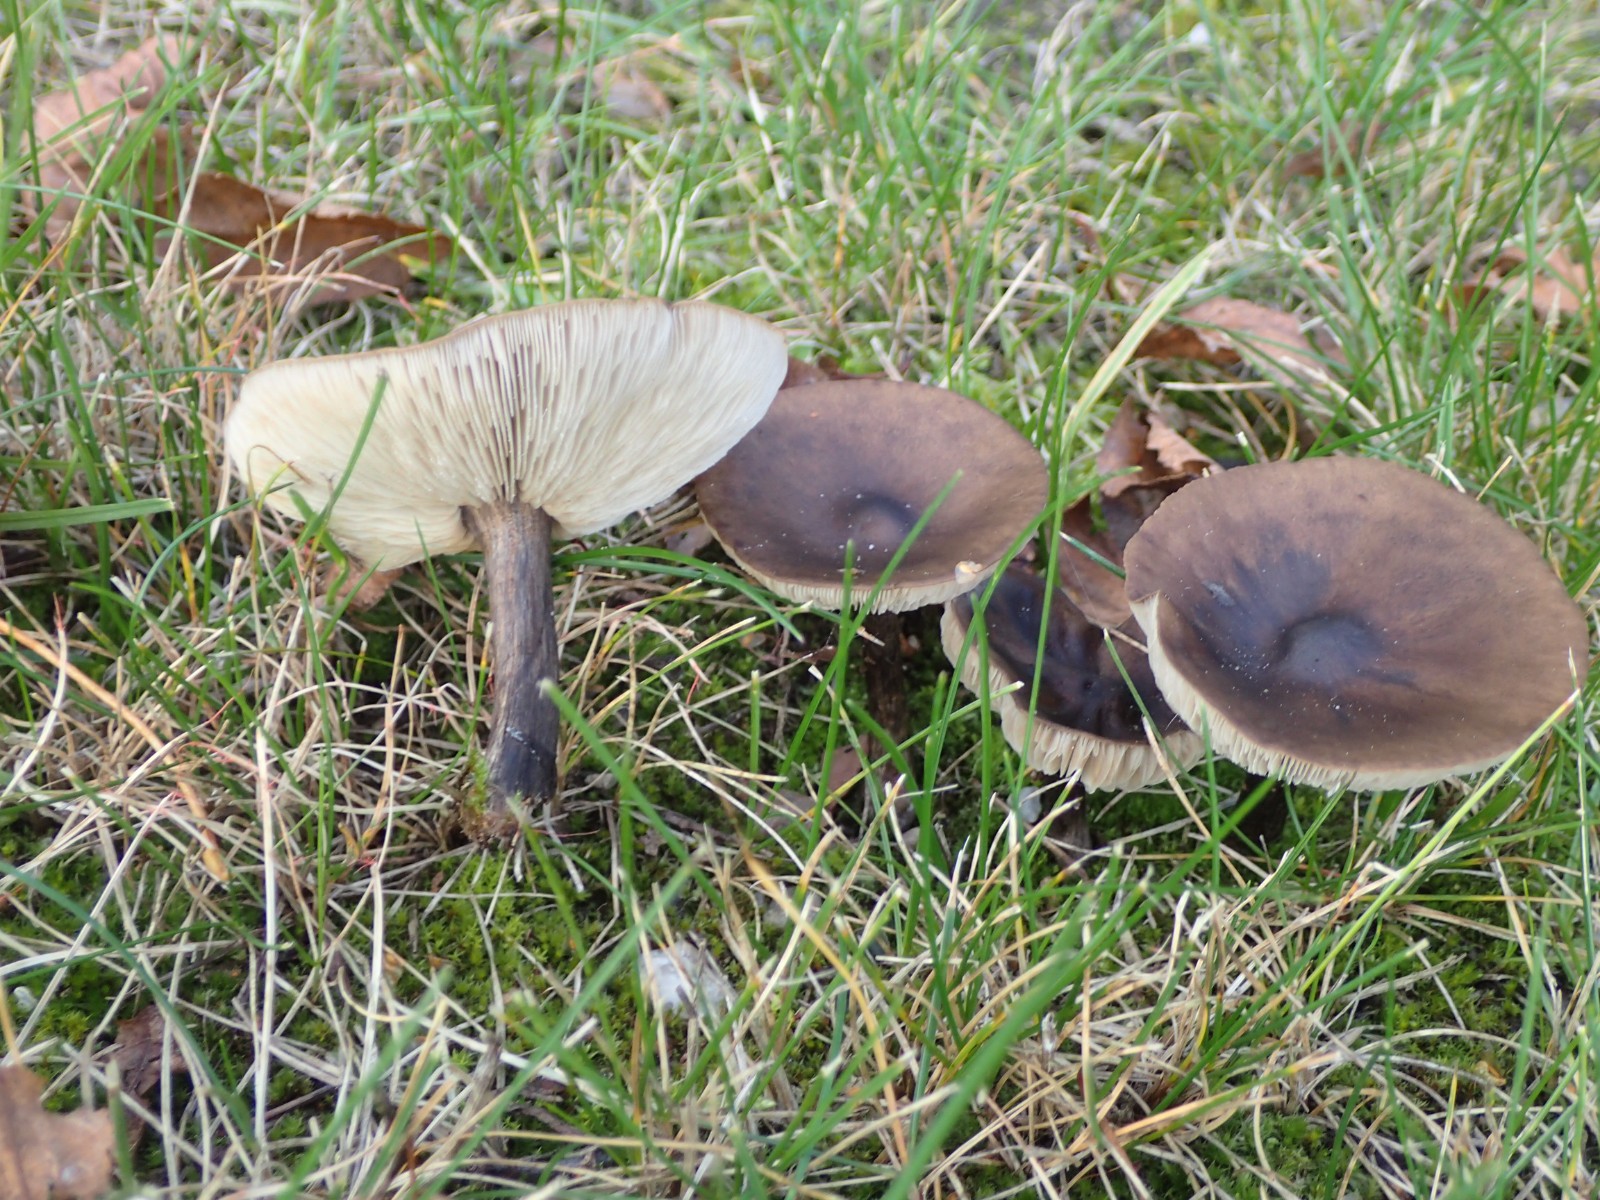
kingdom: Fungi
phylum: Basidiomycota
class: Agaricomycetes
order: Agaricales
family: Tricholomataceae
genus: Melanoleuca
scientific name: Melanoleuca
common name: munkehat
